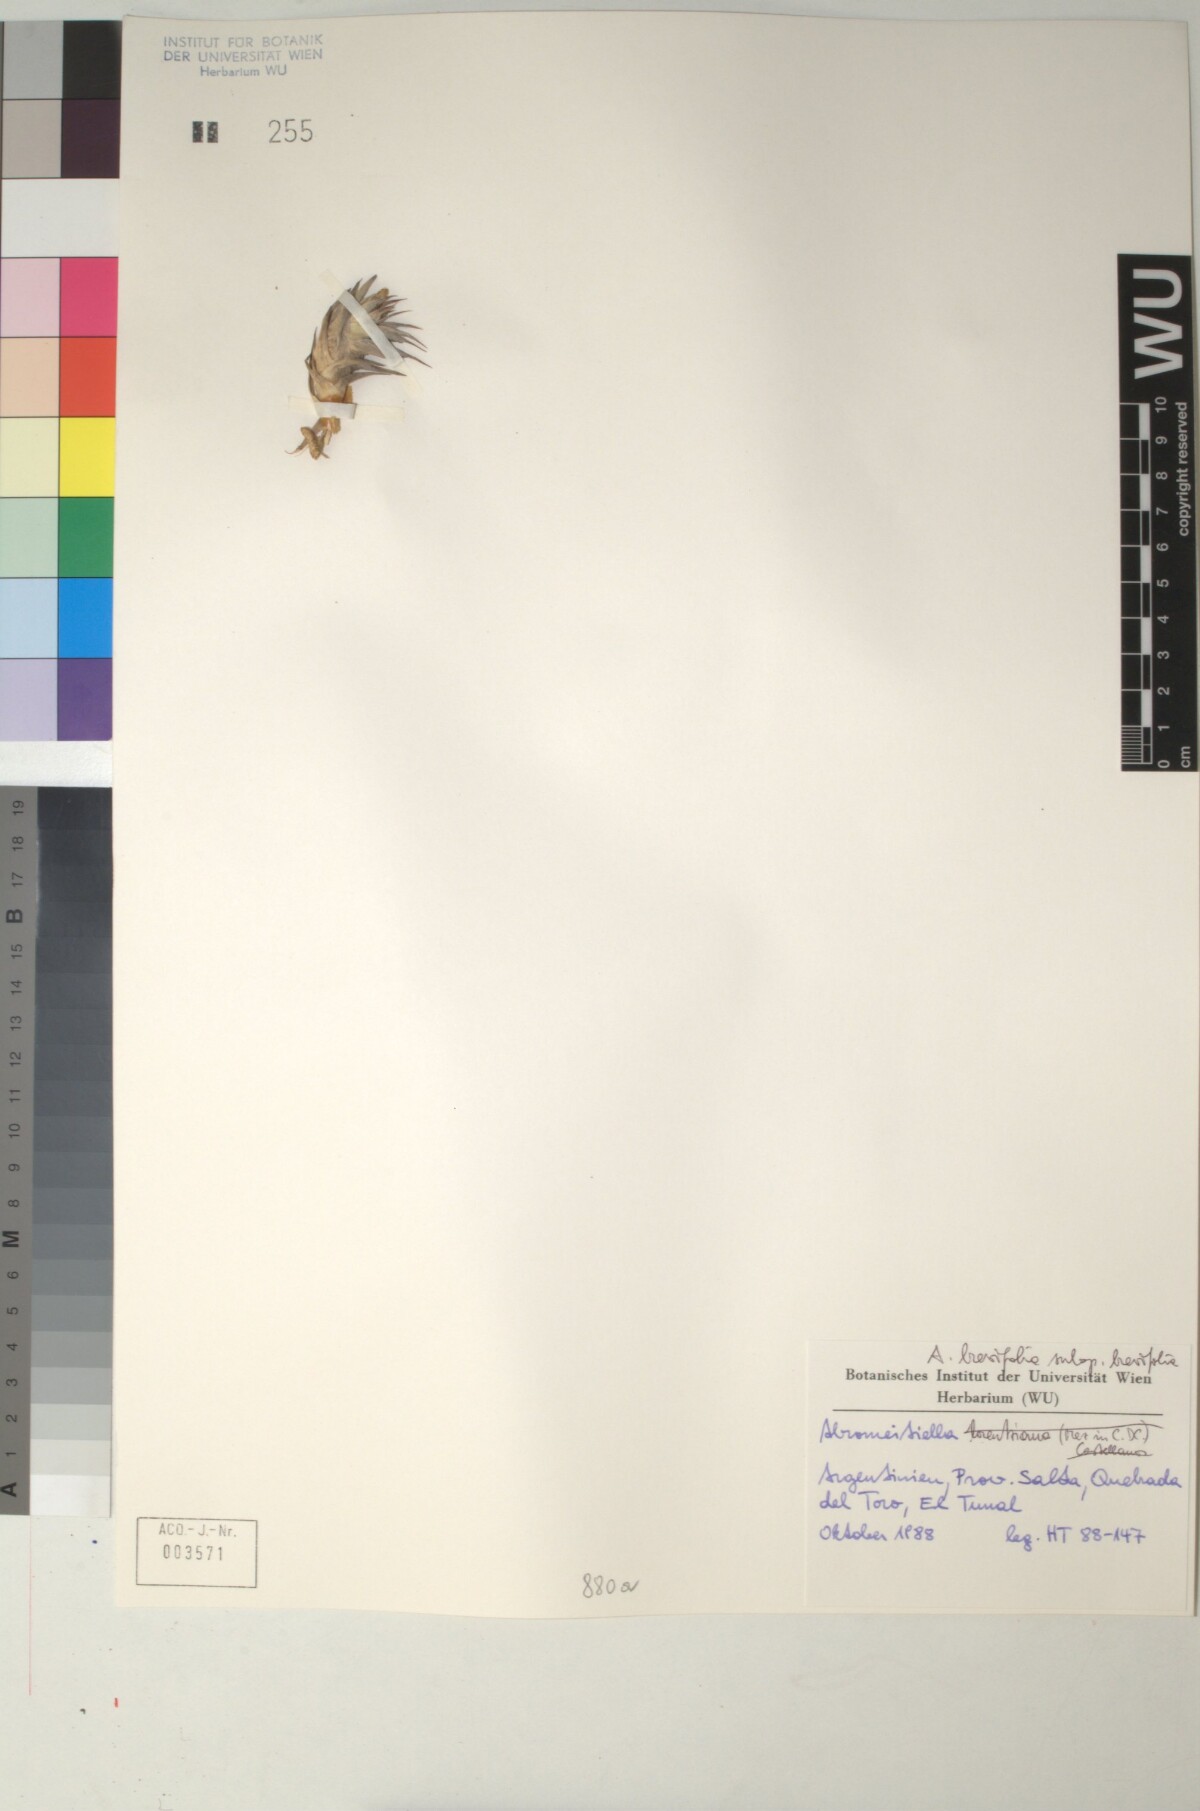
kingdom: Plantae
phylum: Tracheophyta
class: Liliopsida
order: Poales
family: Bromeliaceae
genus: Deuterocohnia
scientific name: Deuterocohnia brevifolia
